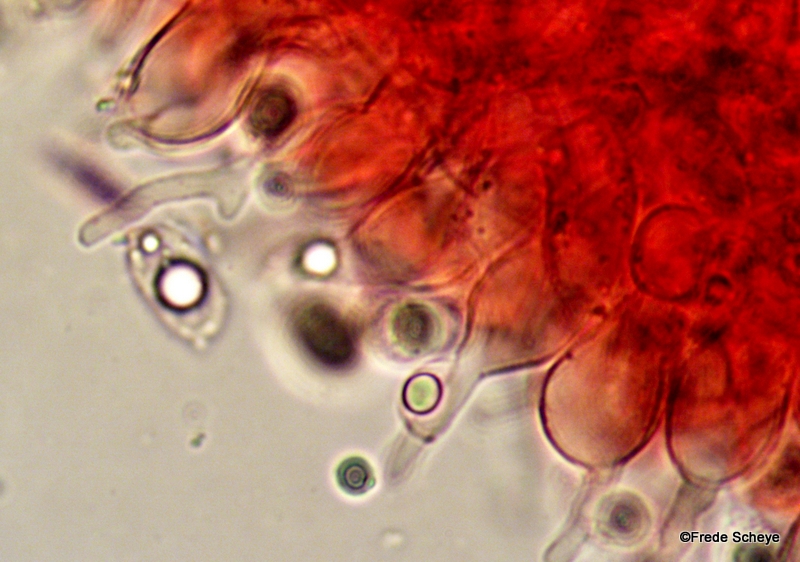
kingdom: Fungi
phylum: Basidiomycota
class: Agaricomycetes
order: Agaricales
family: Mycenaceae
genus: Mycena
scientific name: Mycena vitilis
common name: blankstokket huesvamp
